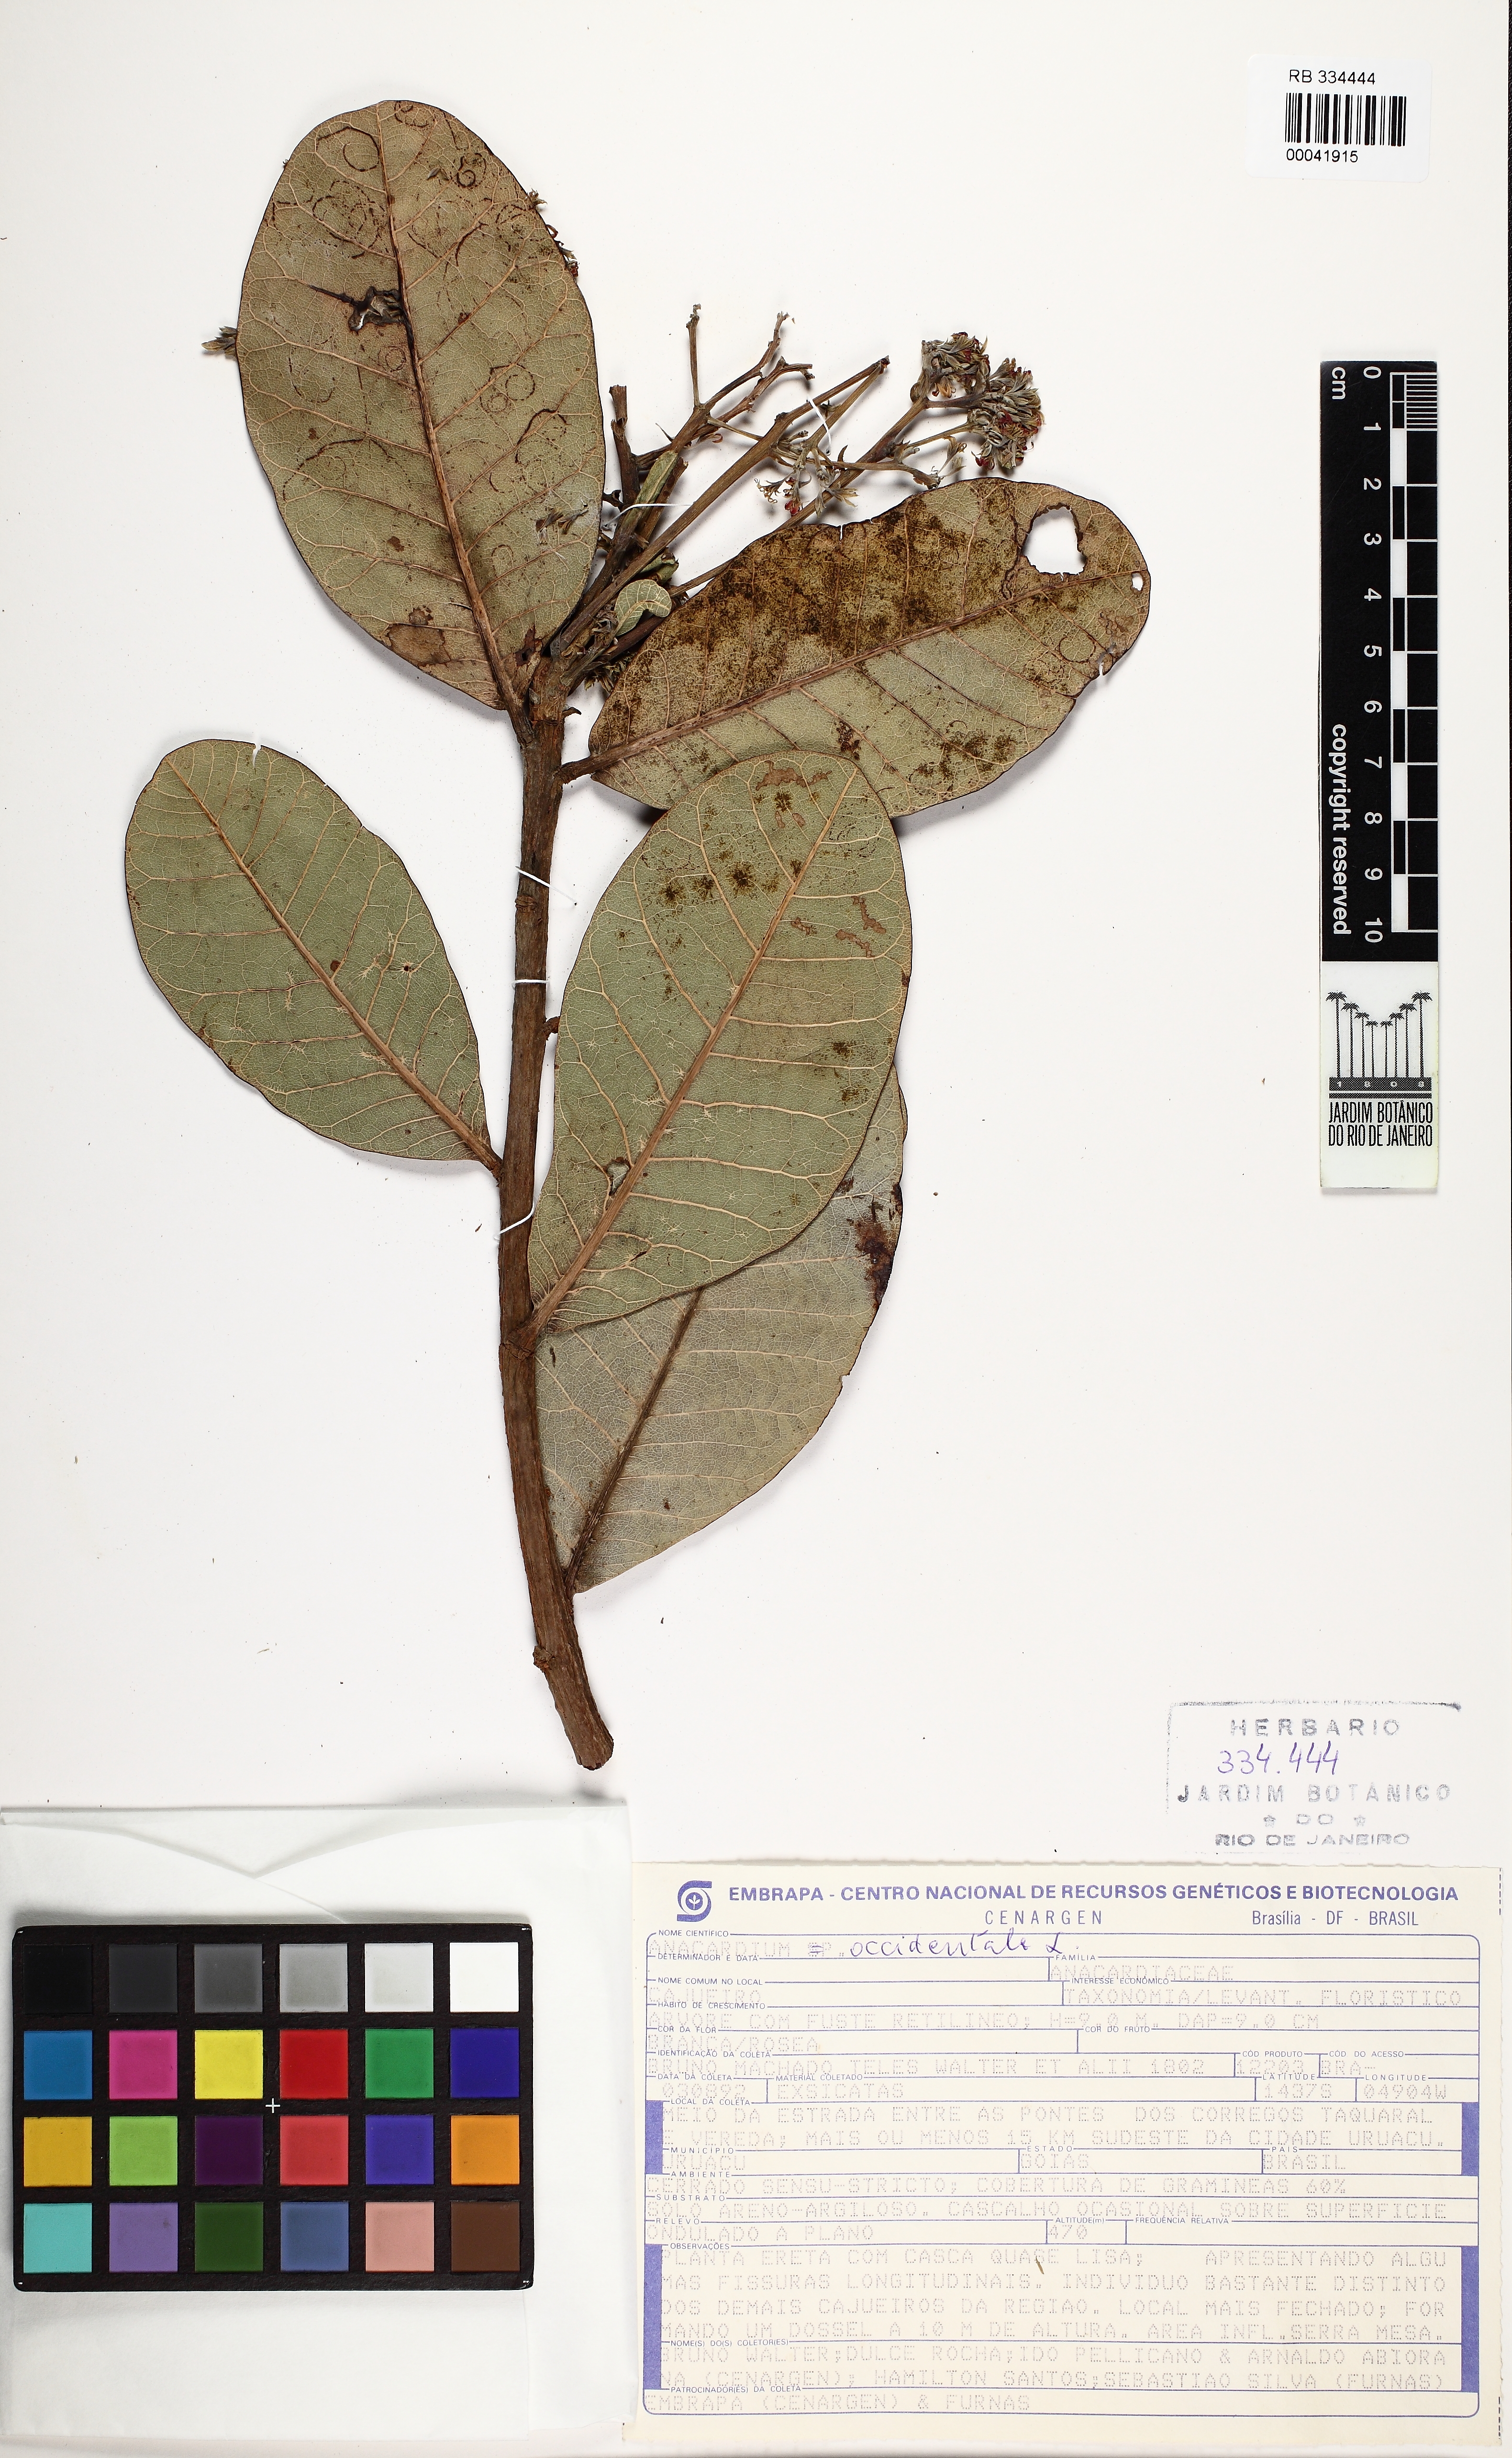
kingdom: Plantae
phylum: Tracheophyta
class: Magnoliopsida
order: Sapindales
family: Anacardiaceae
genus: Anacardium
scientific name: Anacardium occidentale
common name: Cashew
